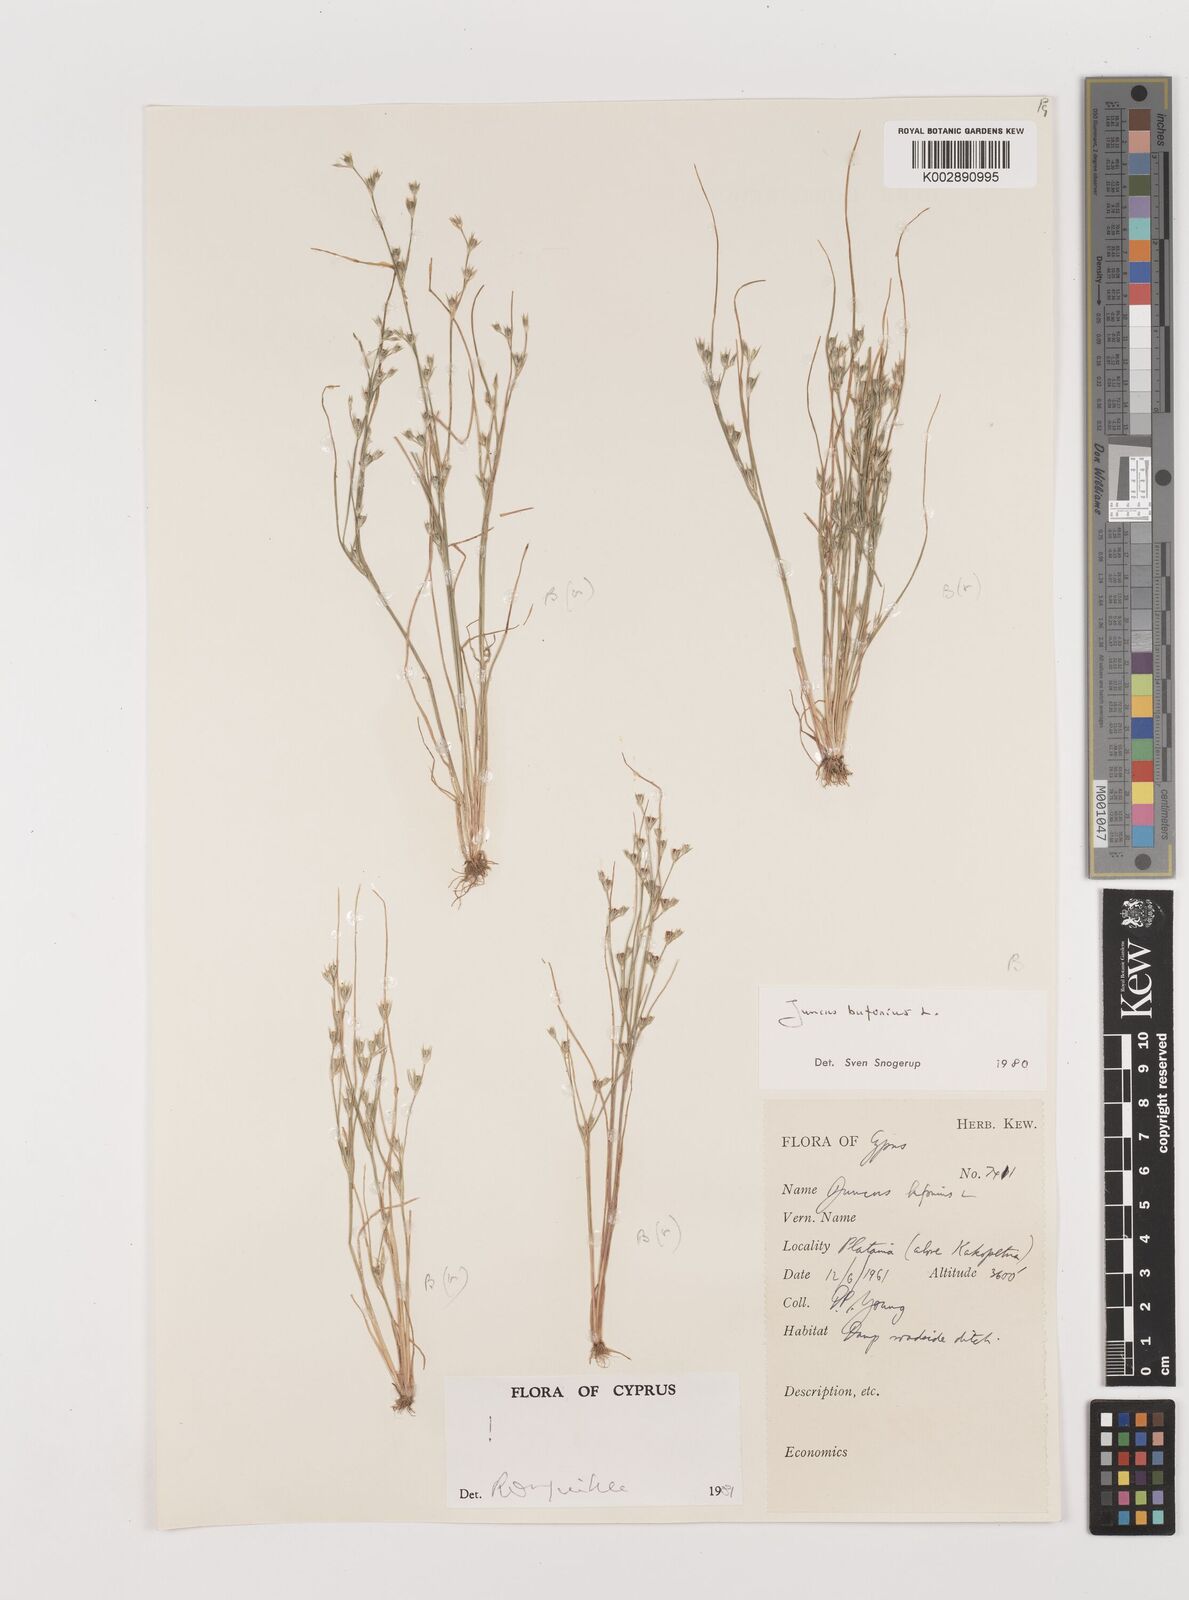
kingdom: Plantae
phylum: Tracheophyta
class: Liliopsida
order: Poales
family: Juncaceae
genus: Juncus
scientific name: Juncus bufonius
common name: Toad rush
